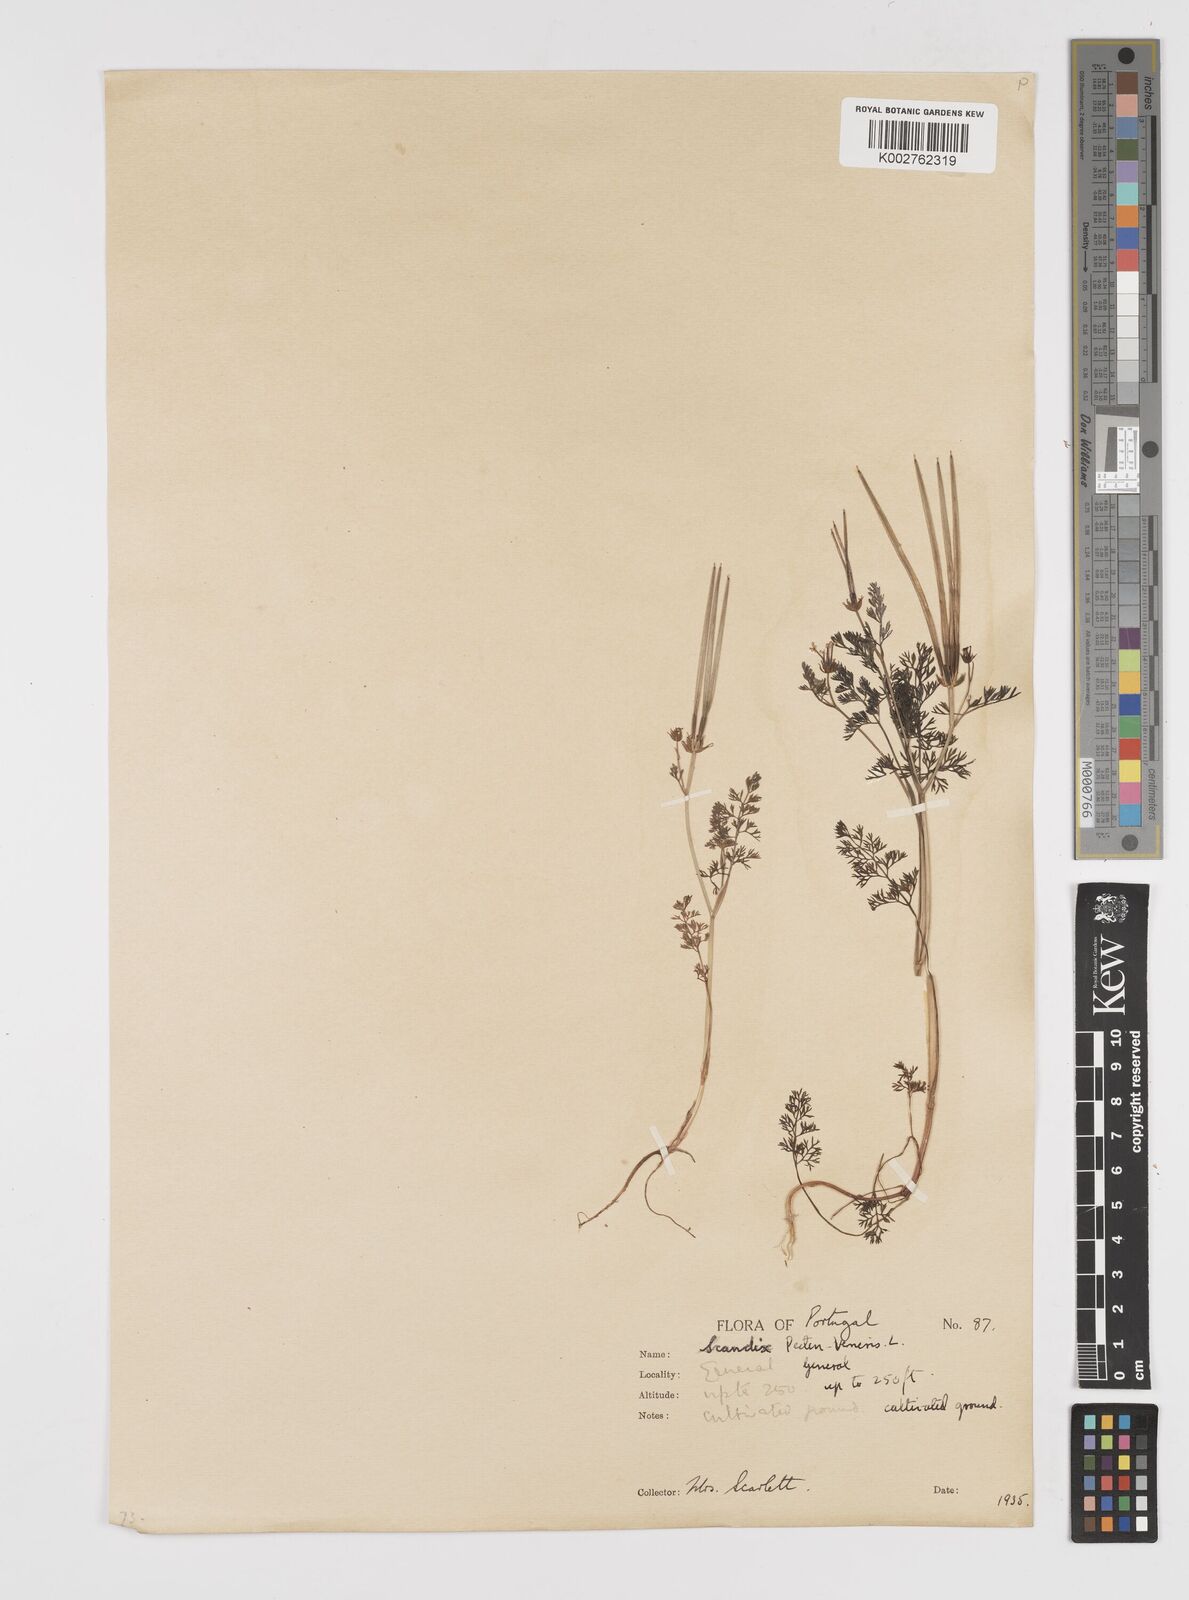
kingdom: Plantae
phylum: Tracheophyta
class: Magnoliopsida
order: Apiales
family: Apiaceae
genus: Scandix
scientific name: Scandix pecten-veneris
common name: Shepherd's-needle
